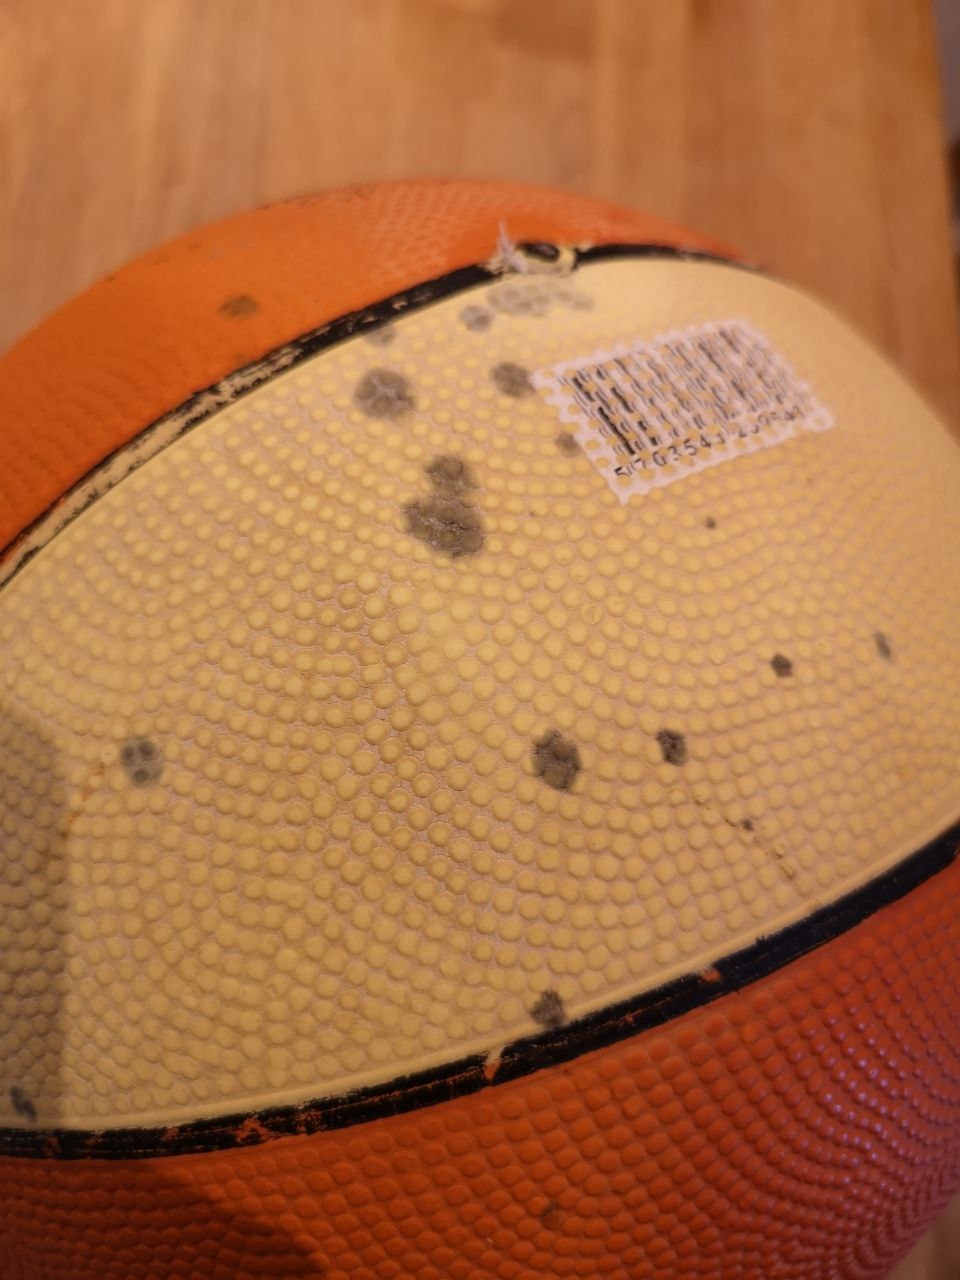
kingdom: Fungi
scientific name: Fungi
